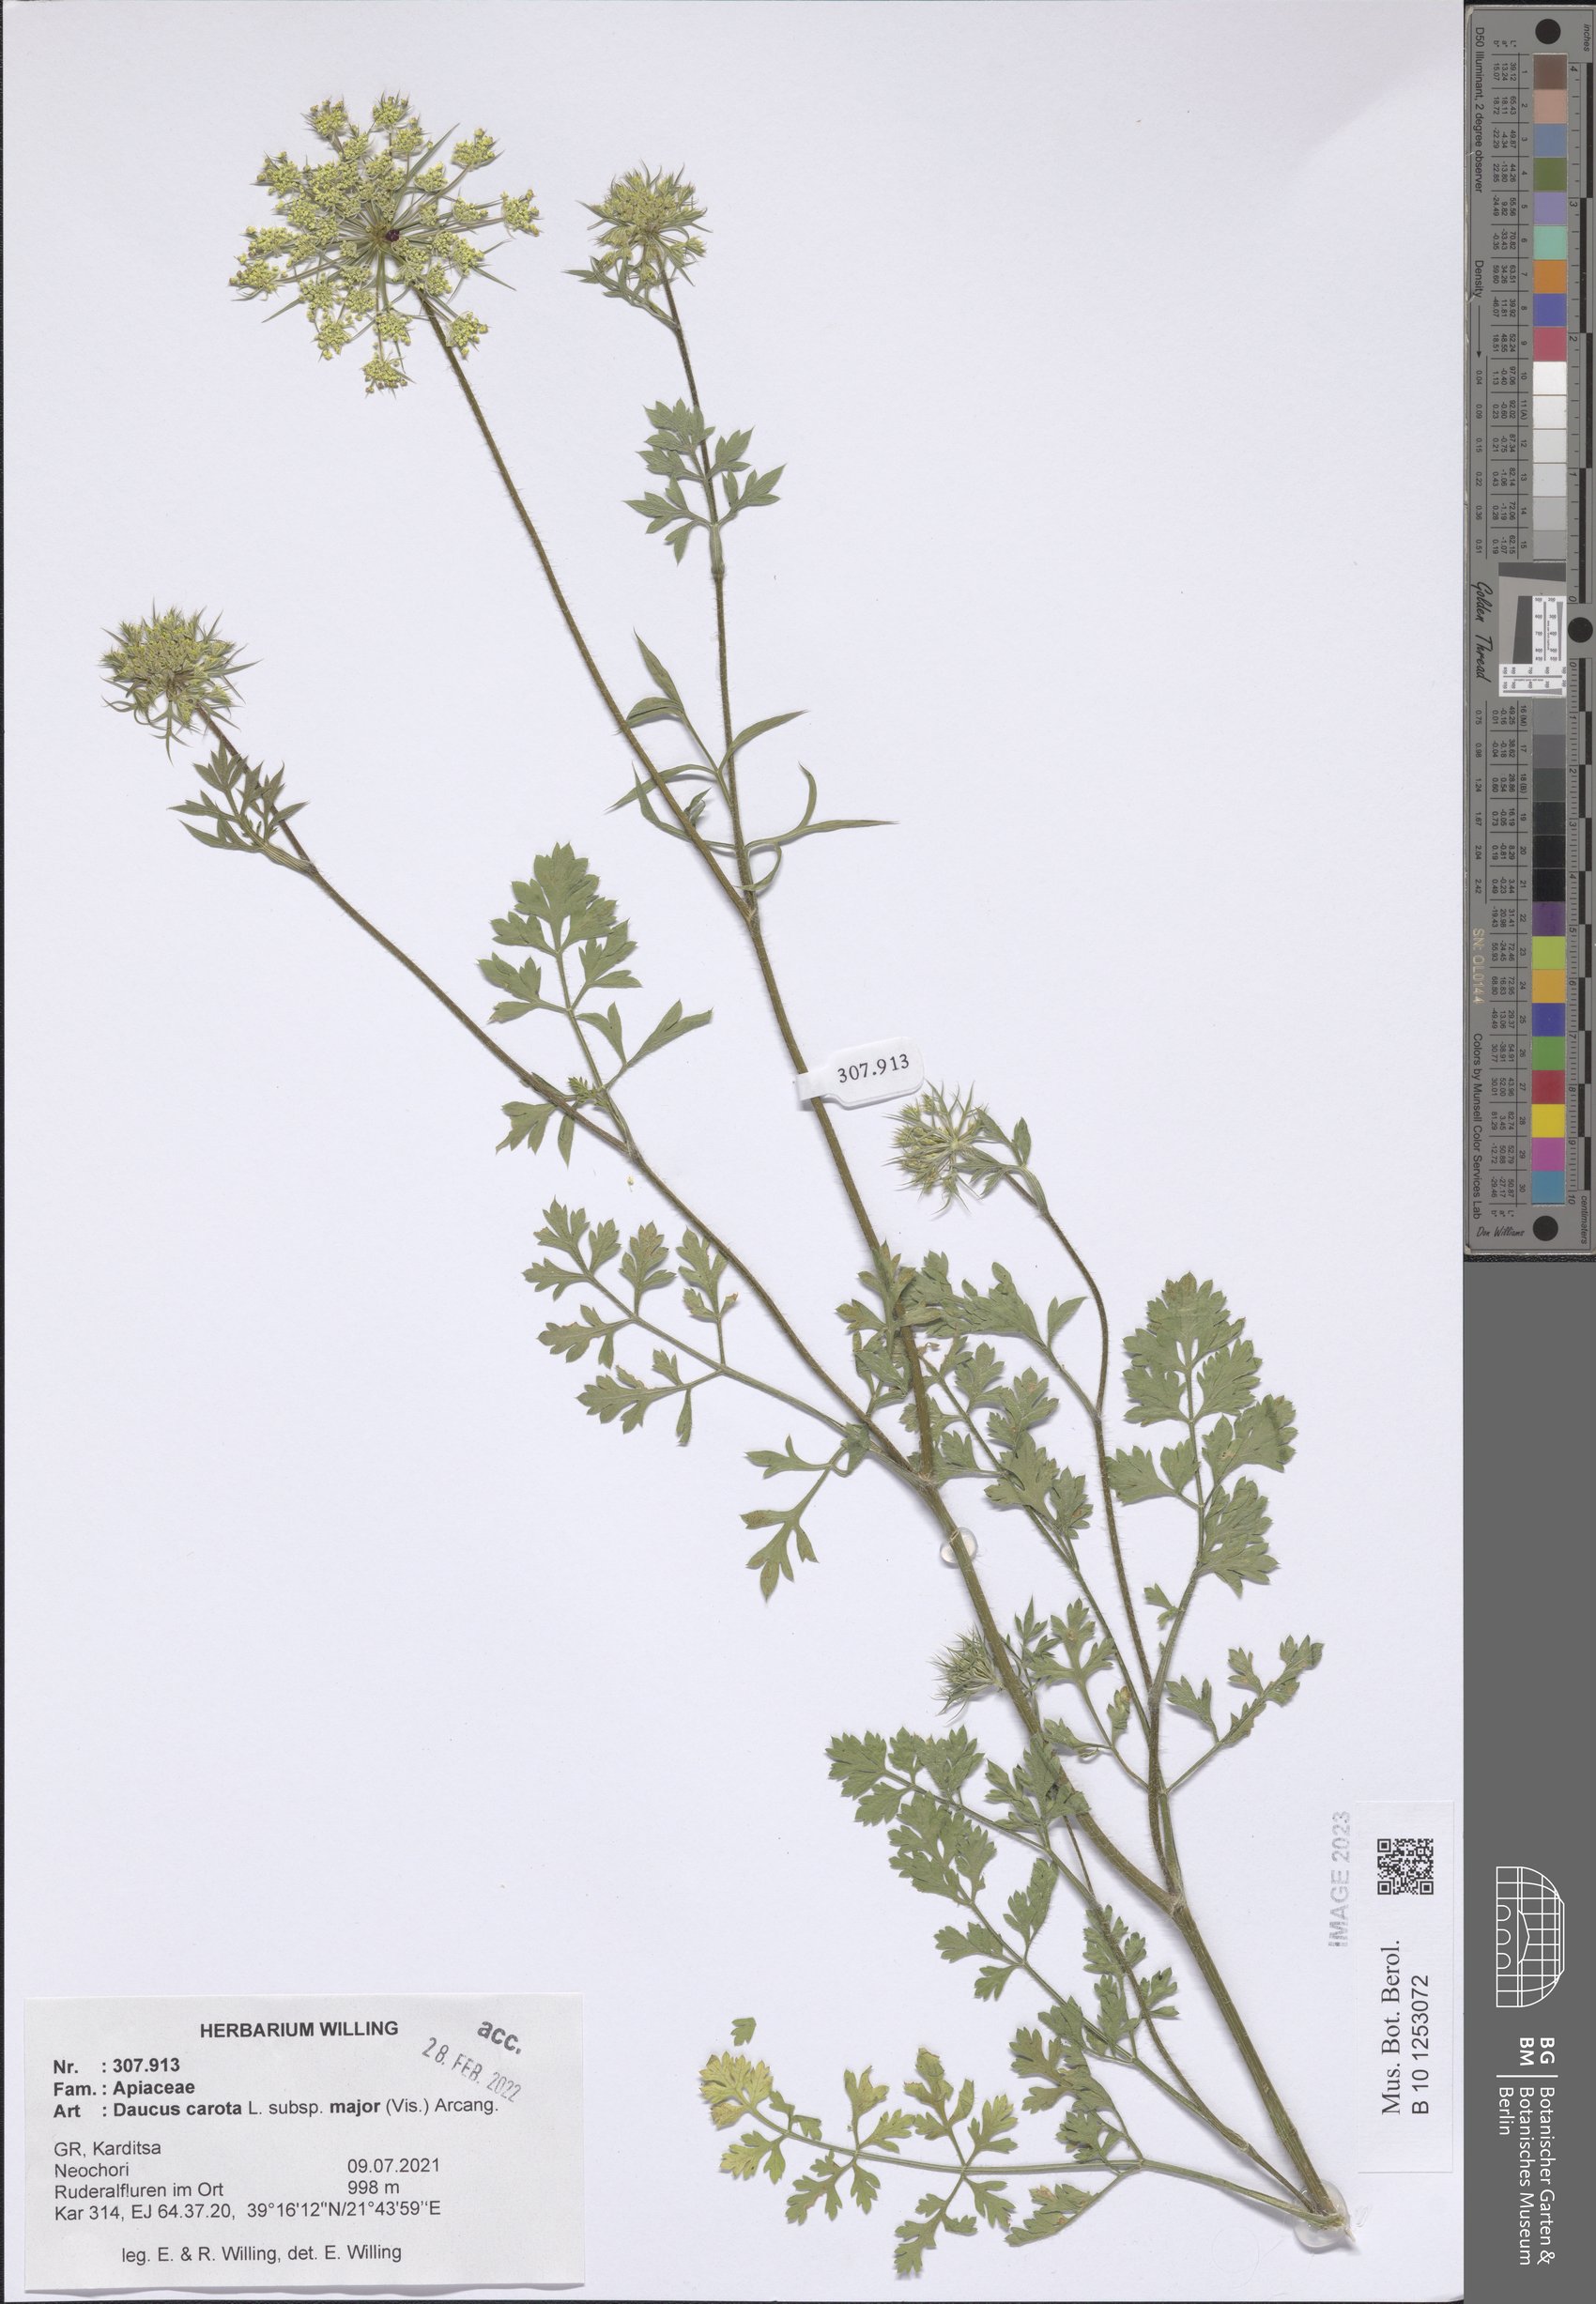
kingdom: Plantae
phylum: Tracheophyta
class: Magnoliopsida
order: Apiales
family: Apiaceae
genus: Daucus
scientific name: Daucus carota
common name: Wild carrot
